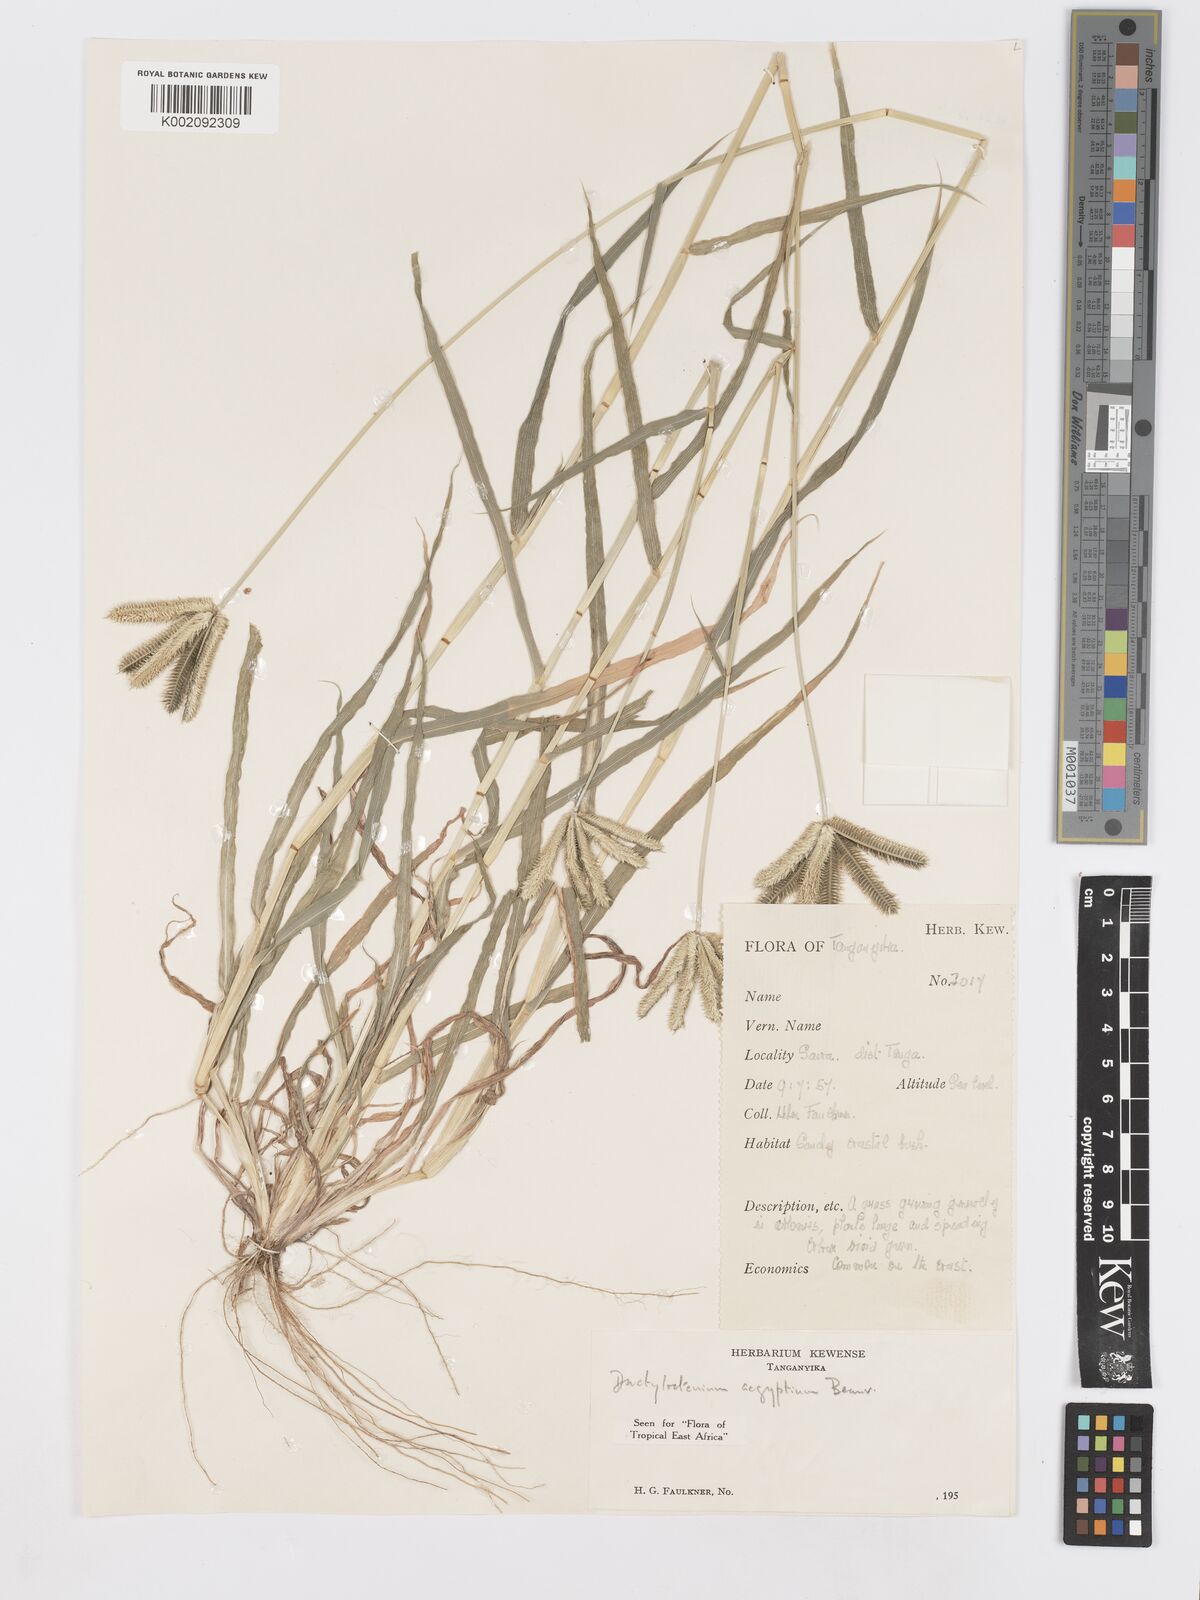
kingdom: Plantae
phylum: Tracheophyta
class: Liliopsida
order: Poales
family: Poaceae
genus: Dactyloctenium
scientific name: Dactyloctenium aegyptium
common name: Egyptian grass
